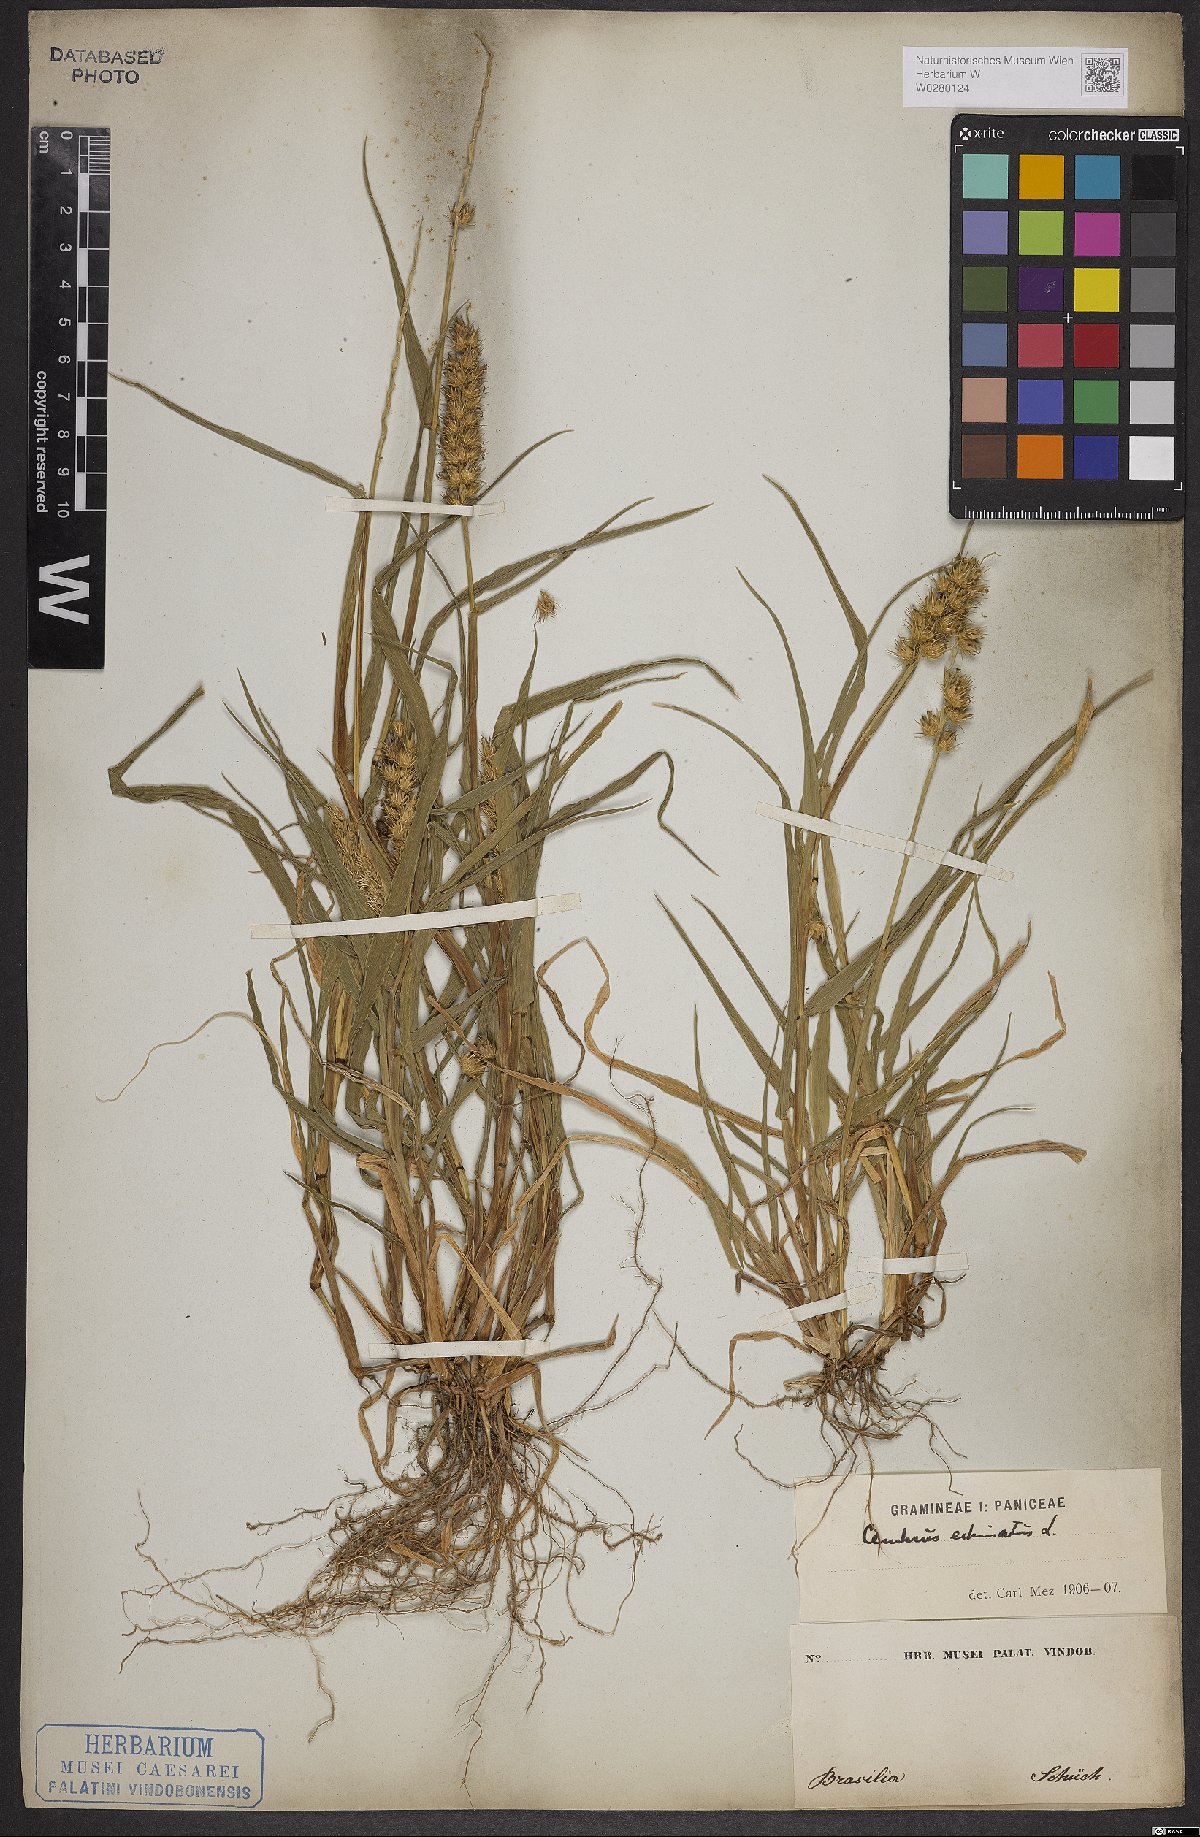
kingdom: Plantae
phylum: Tracheophyta
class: Liliopsida
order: Poales
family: Poaceae
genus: Cenchrus
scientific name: Cenchrus echinatus
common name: Southern sandbur
